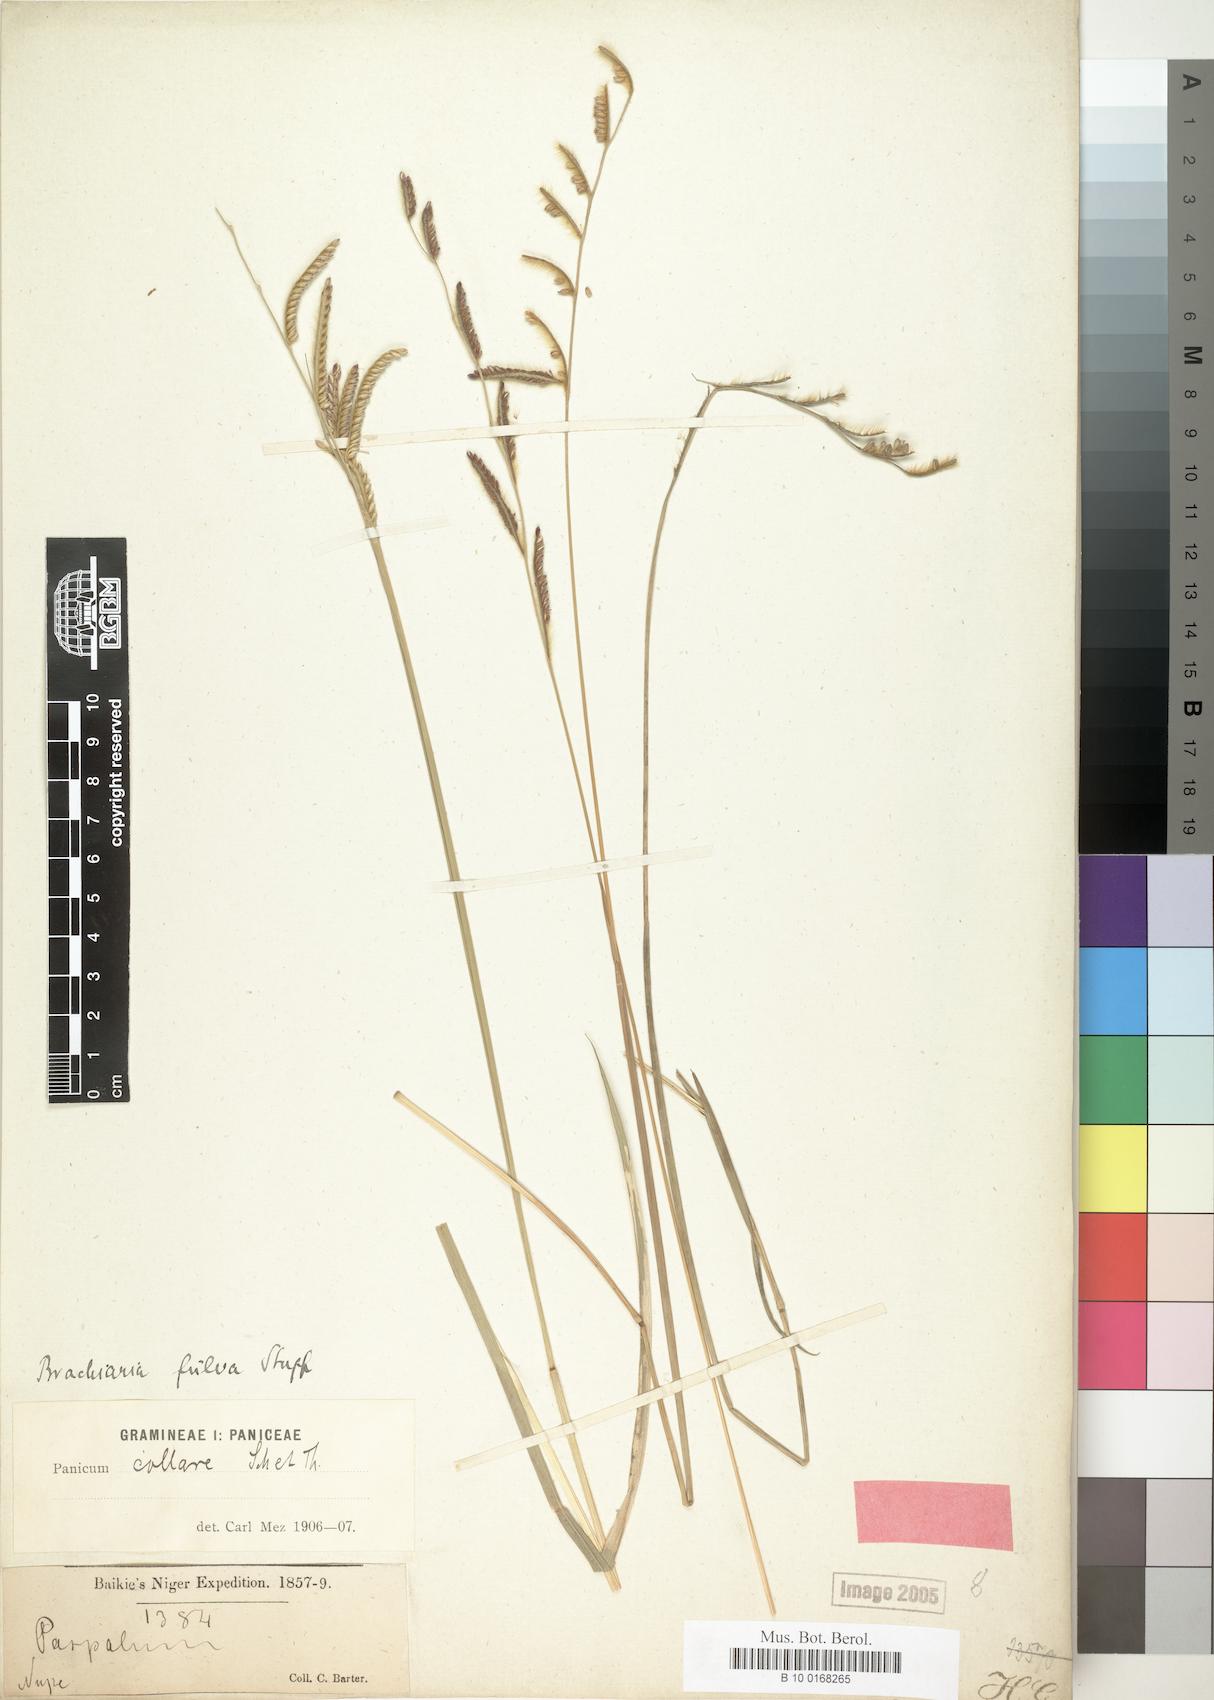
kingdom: Plantae
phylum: Tracheophyta
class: Liliopsida
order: Poales
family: Poaceae
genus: Urochloa
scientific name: Urochloa jubata
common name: Buffalograss
